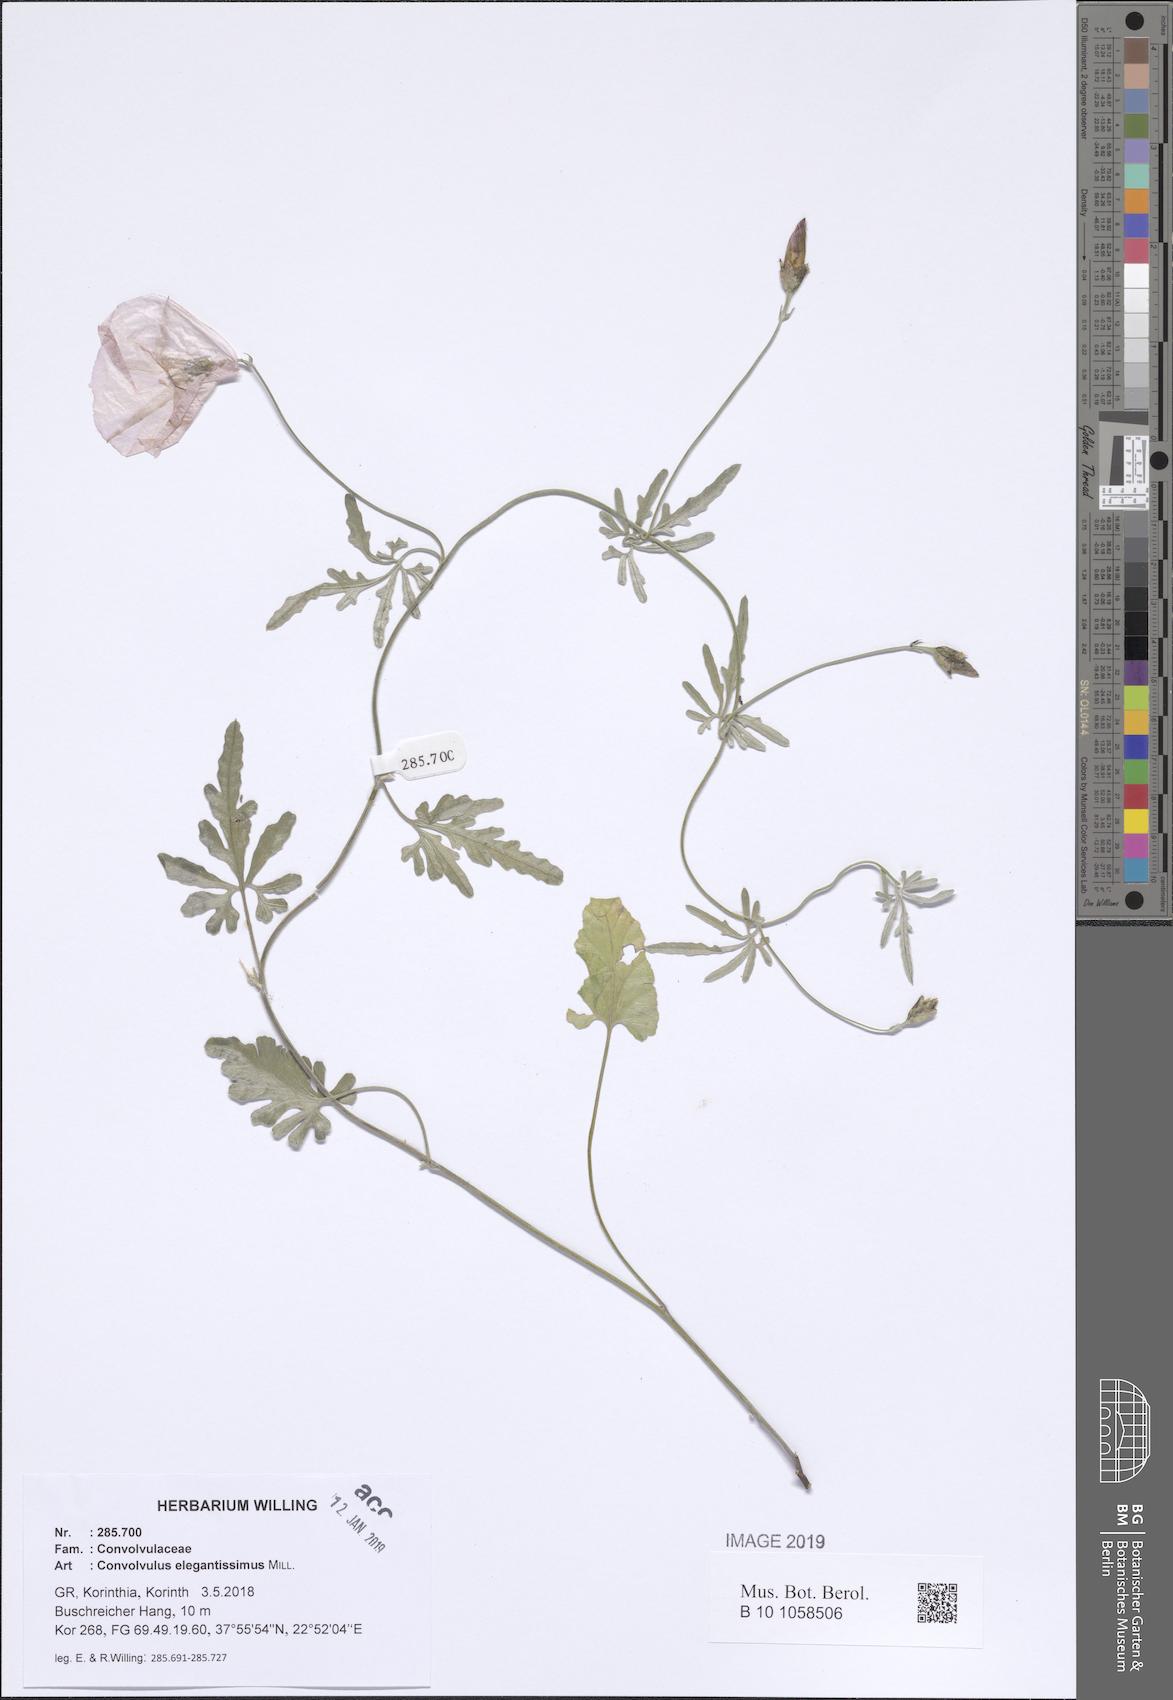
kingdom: Plantae
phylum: Tracheophyta
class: Magnoliopsida
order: Solanales
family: Convolvulaceae
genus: Convolvulus
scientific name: Convolvulus elegantissimus
